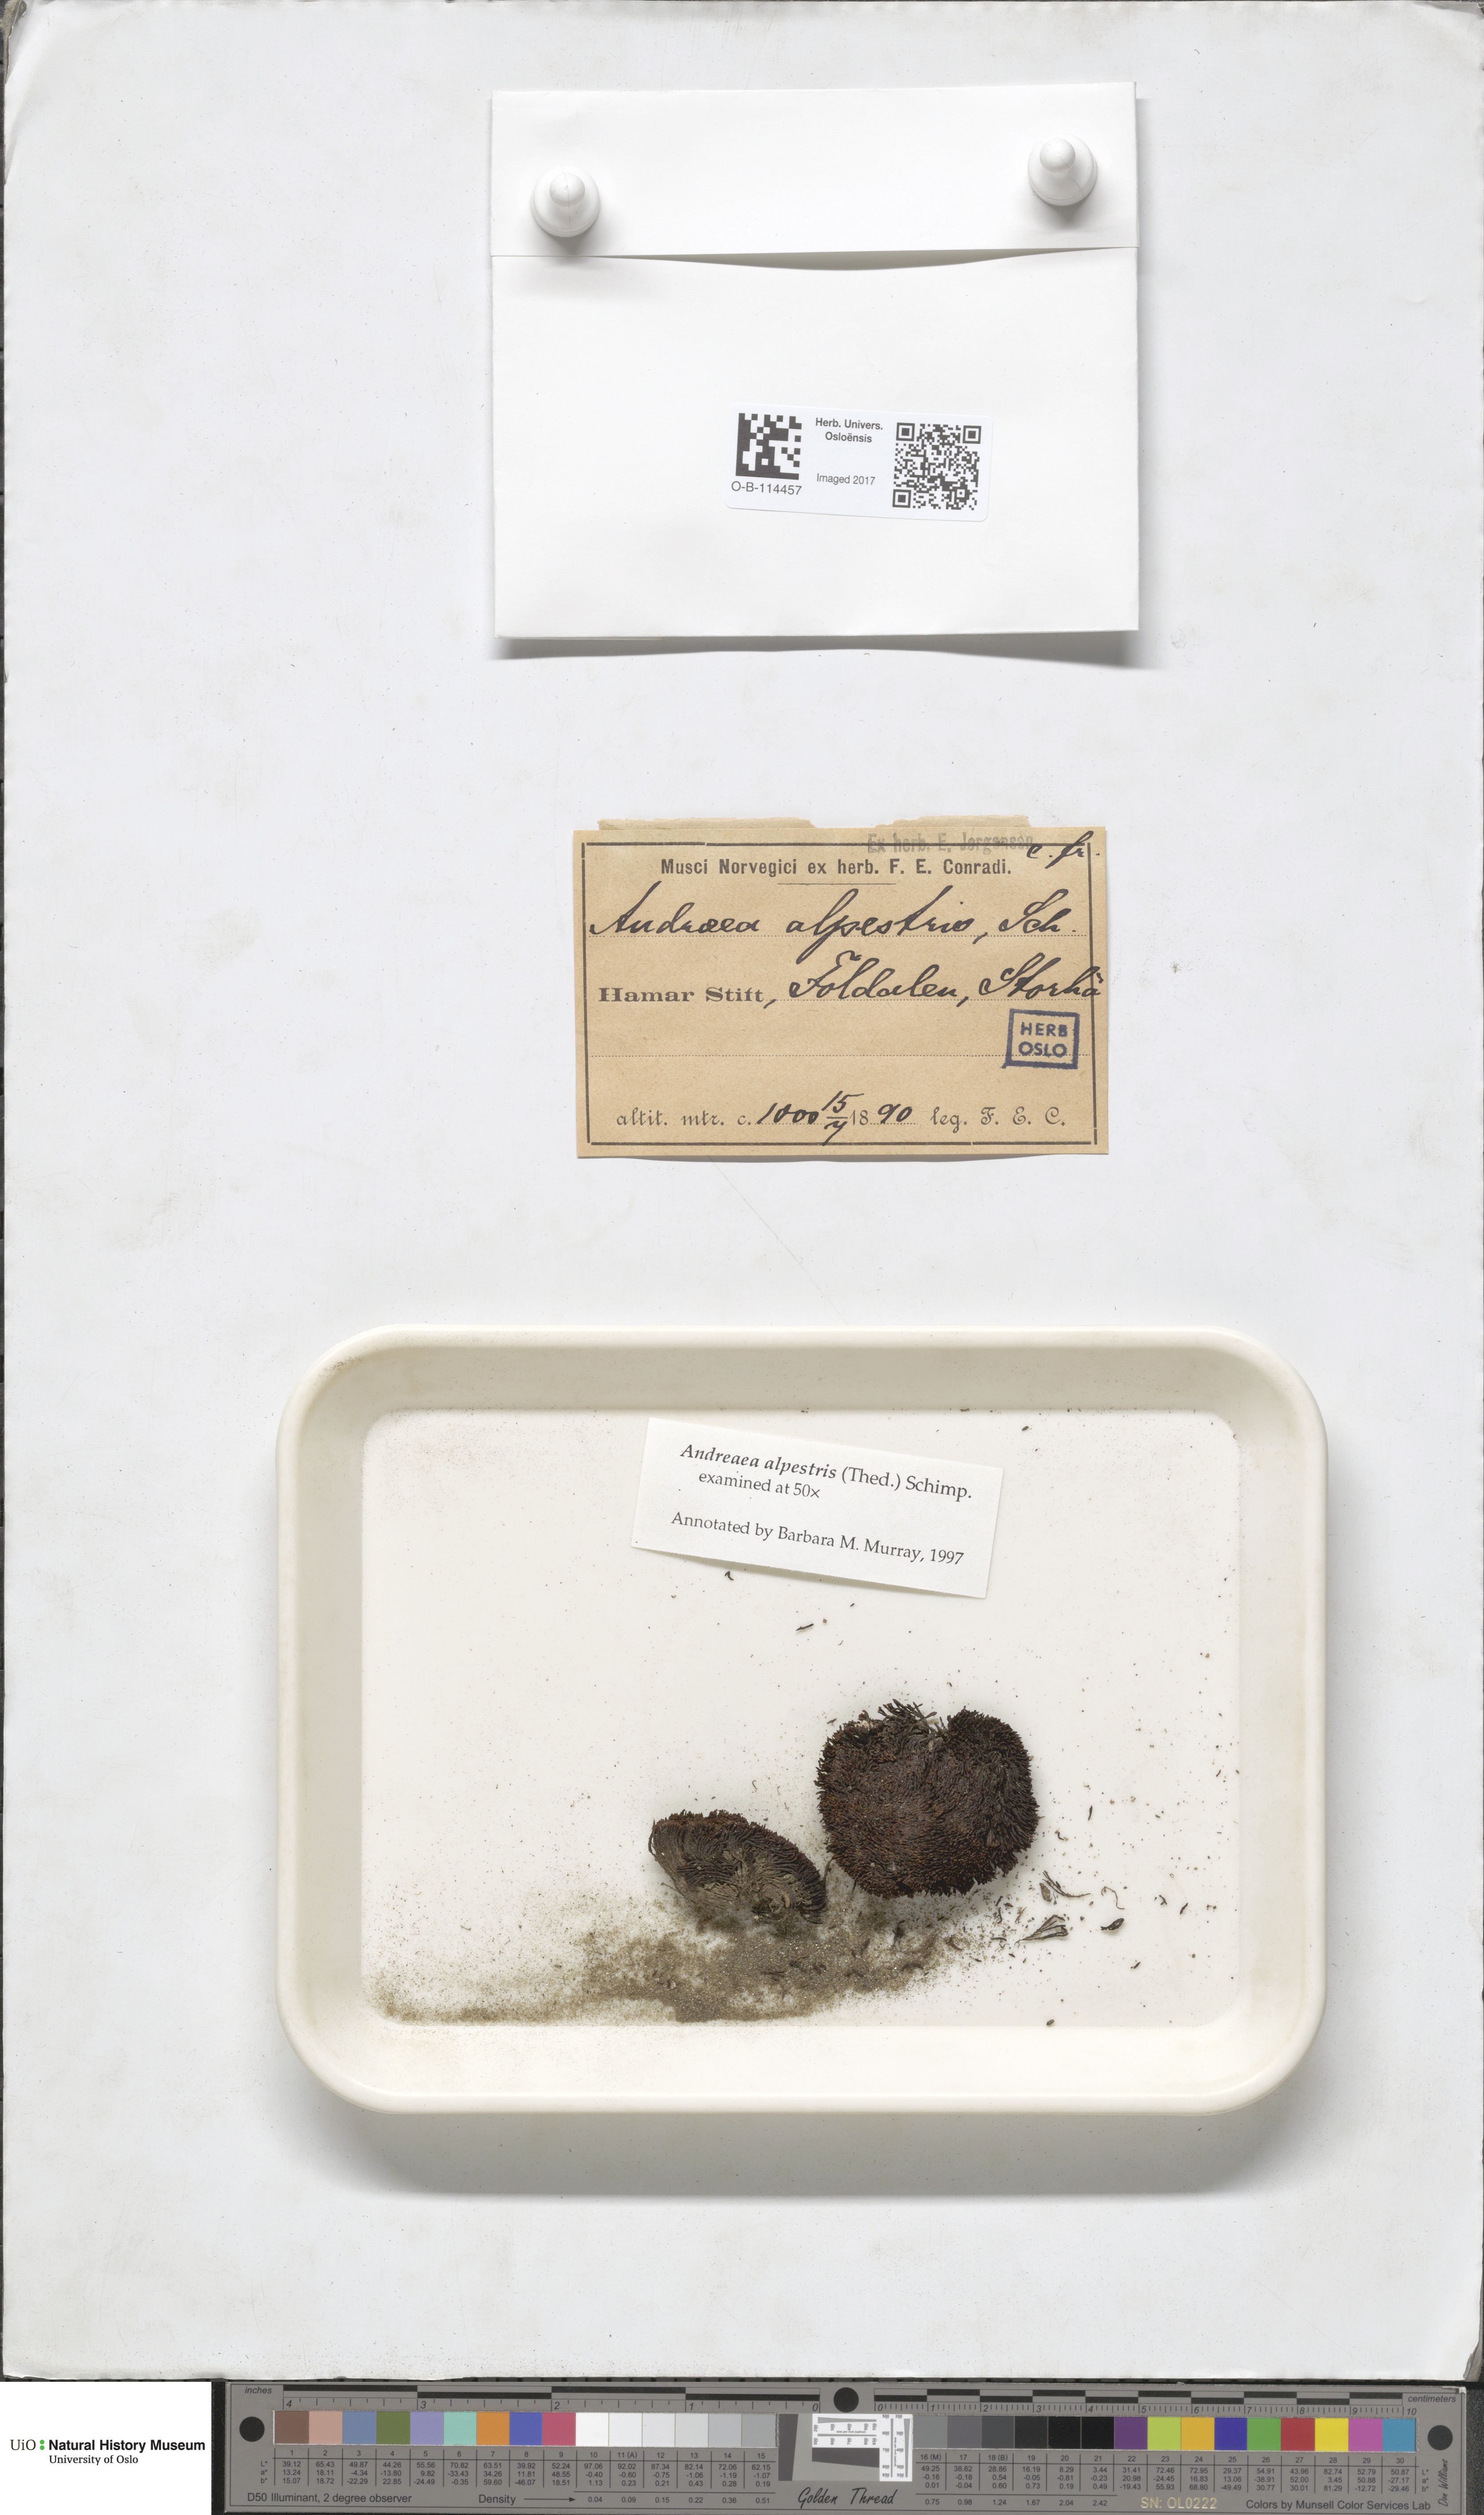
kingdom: Plantae
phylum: Bryophyta
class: Andreaeopsida
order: Andreaeales
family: Andreaeaceae
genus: Andreaea
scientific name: Andreaea alpestris
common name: Slender rock-moss
